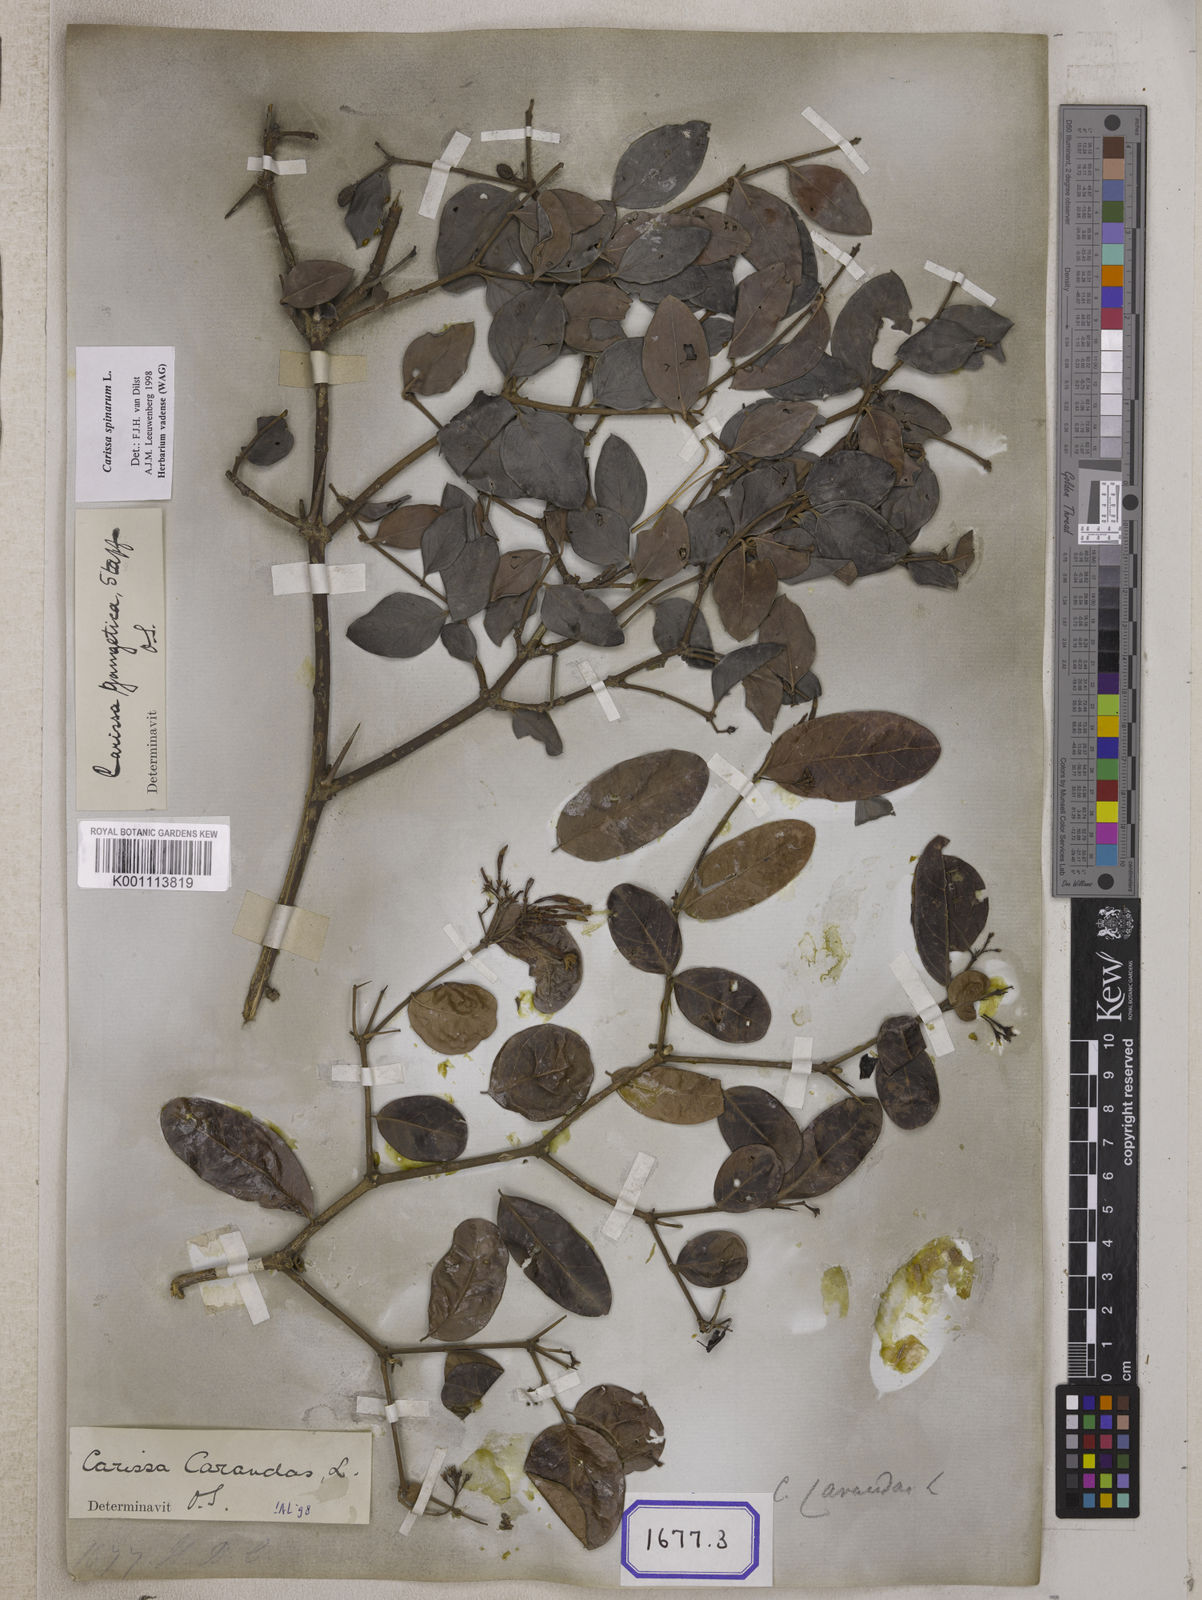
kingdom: Plantae
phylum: Tracheophyta
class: Magnoliopsida
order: Gentianales
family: Apocynaceae
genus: Carissa
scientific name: Carissa carandas
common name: Karanda
